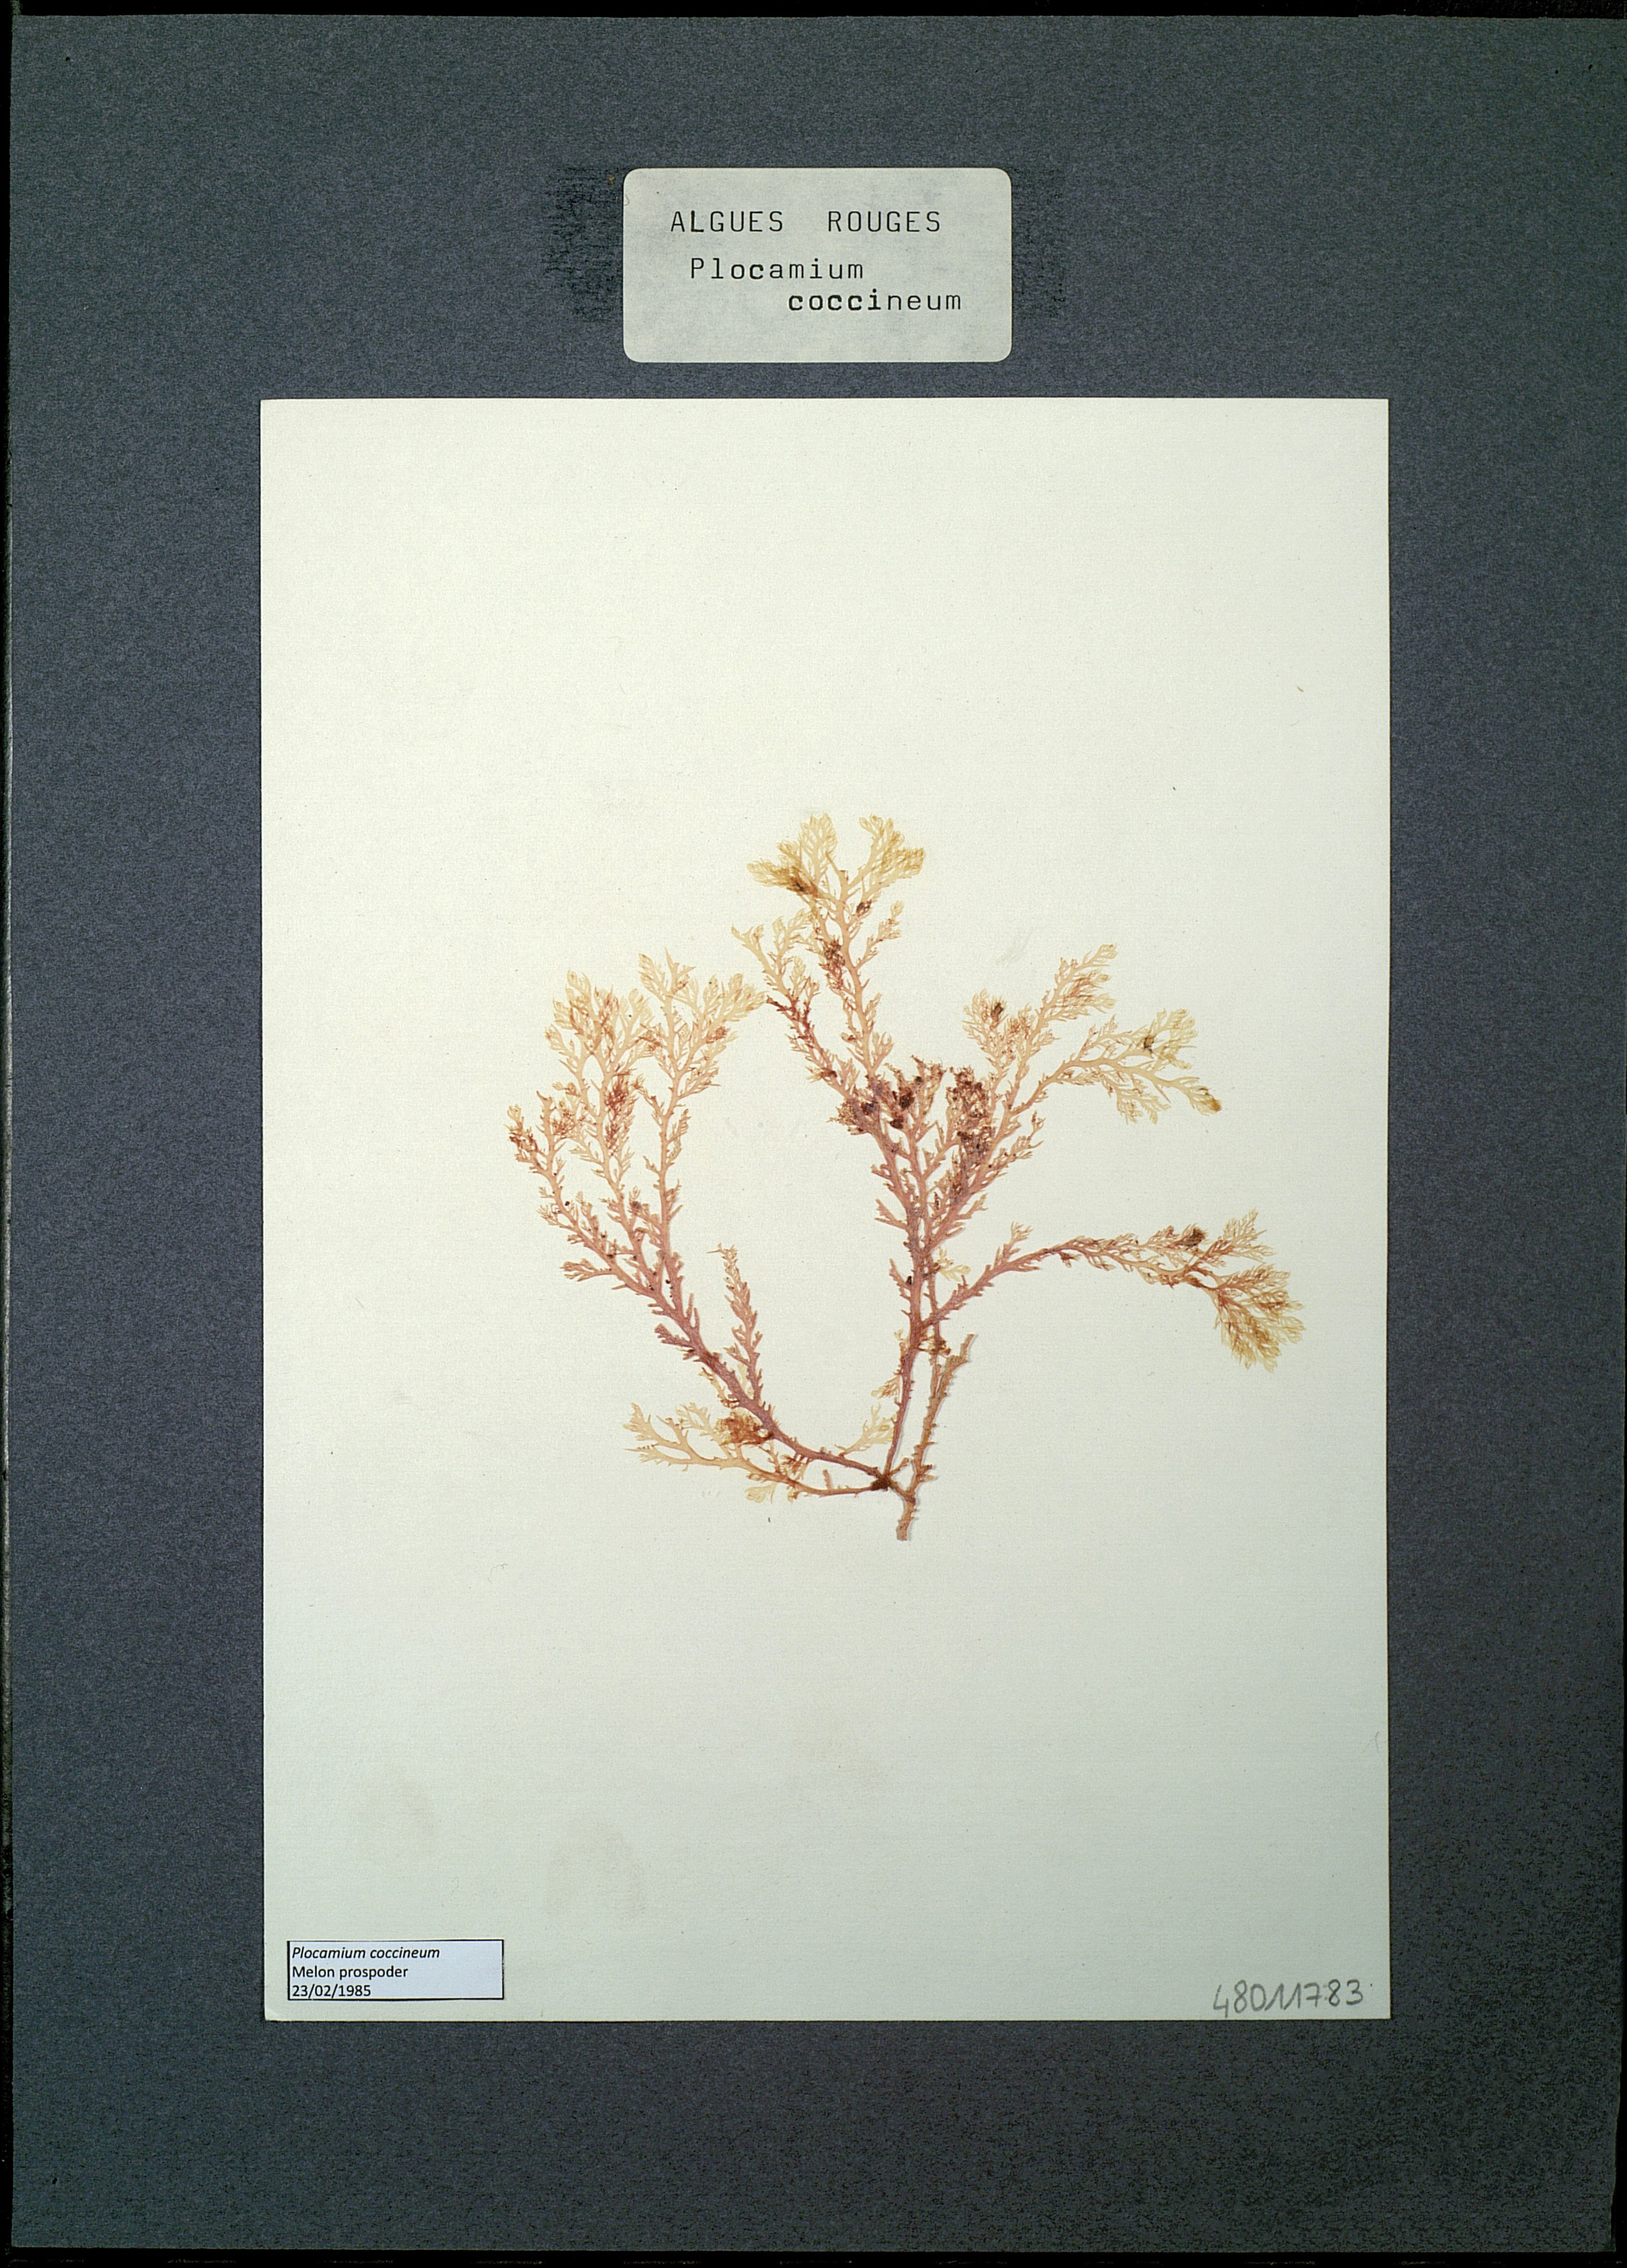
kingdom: Plantae
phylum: Rhodophyta
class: Florideophyceae
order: Plocamiales
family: Plocamiaceae
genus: Plocamium
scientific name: Plocamium cartilagineum
